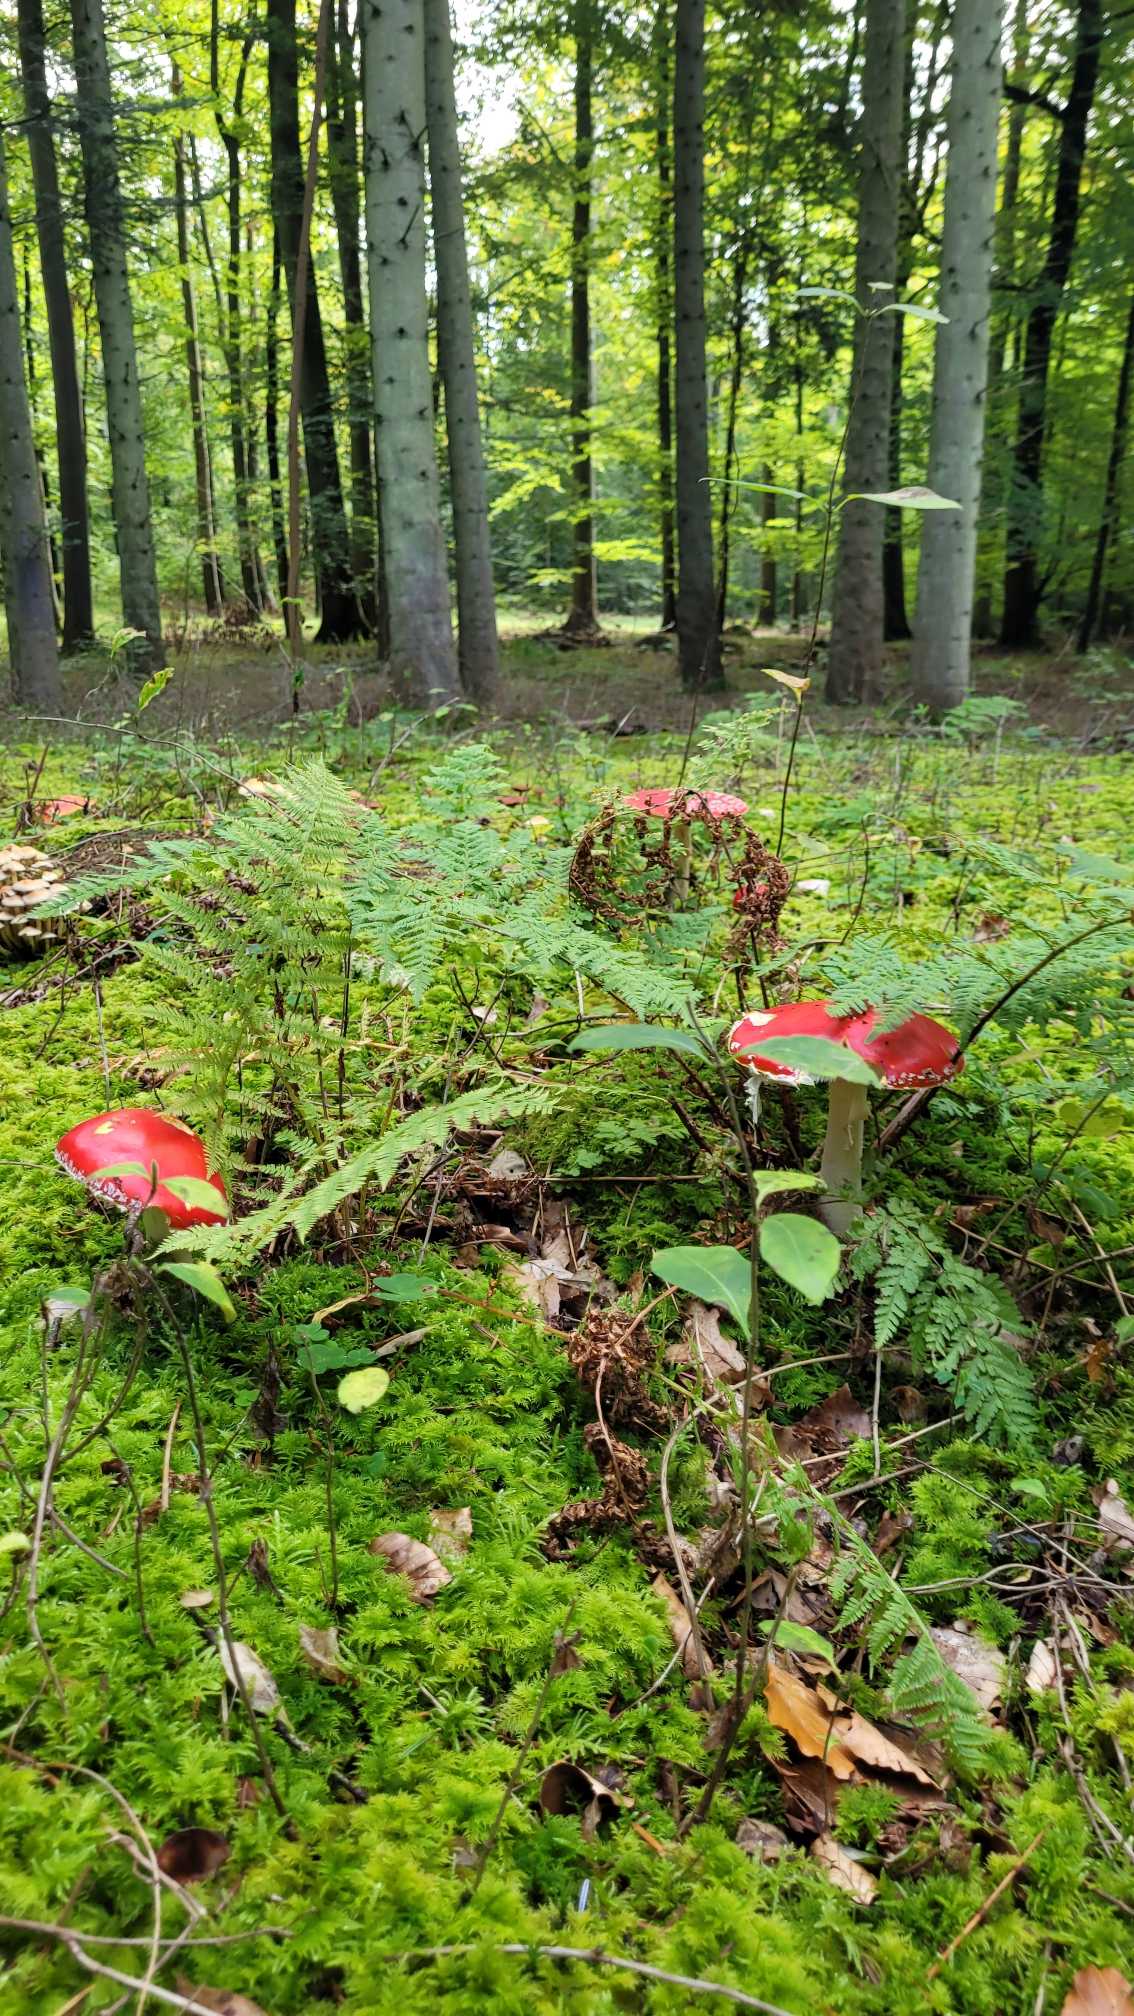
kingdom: Fungi
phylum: Basidiomycota
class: Agaricomycetes
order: Agaricales
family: Amanitaceae
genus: Amanita
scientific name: Amanita muscaria
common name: Rød fluesvamp
